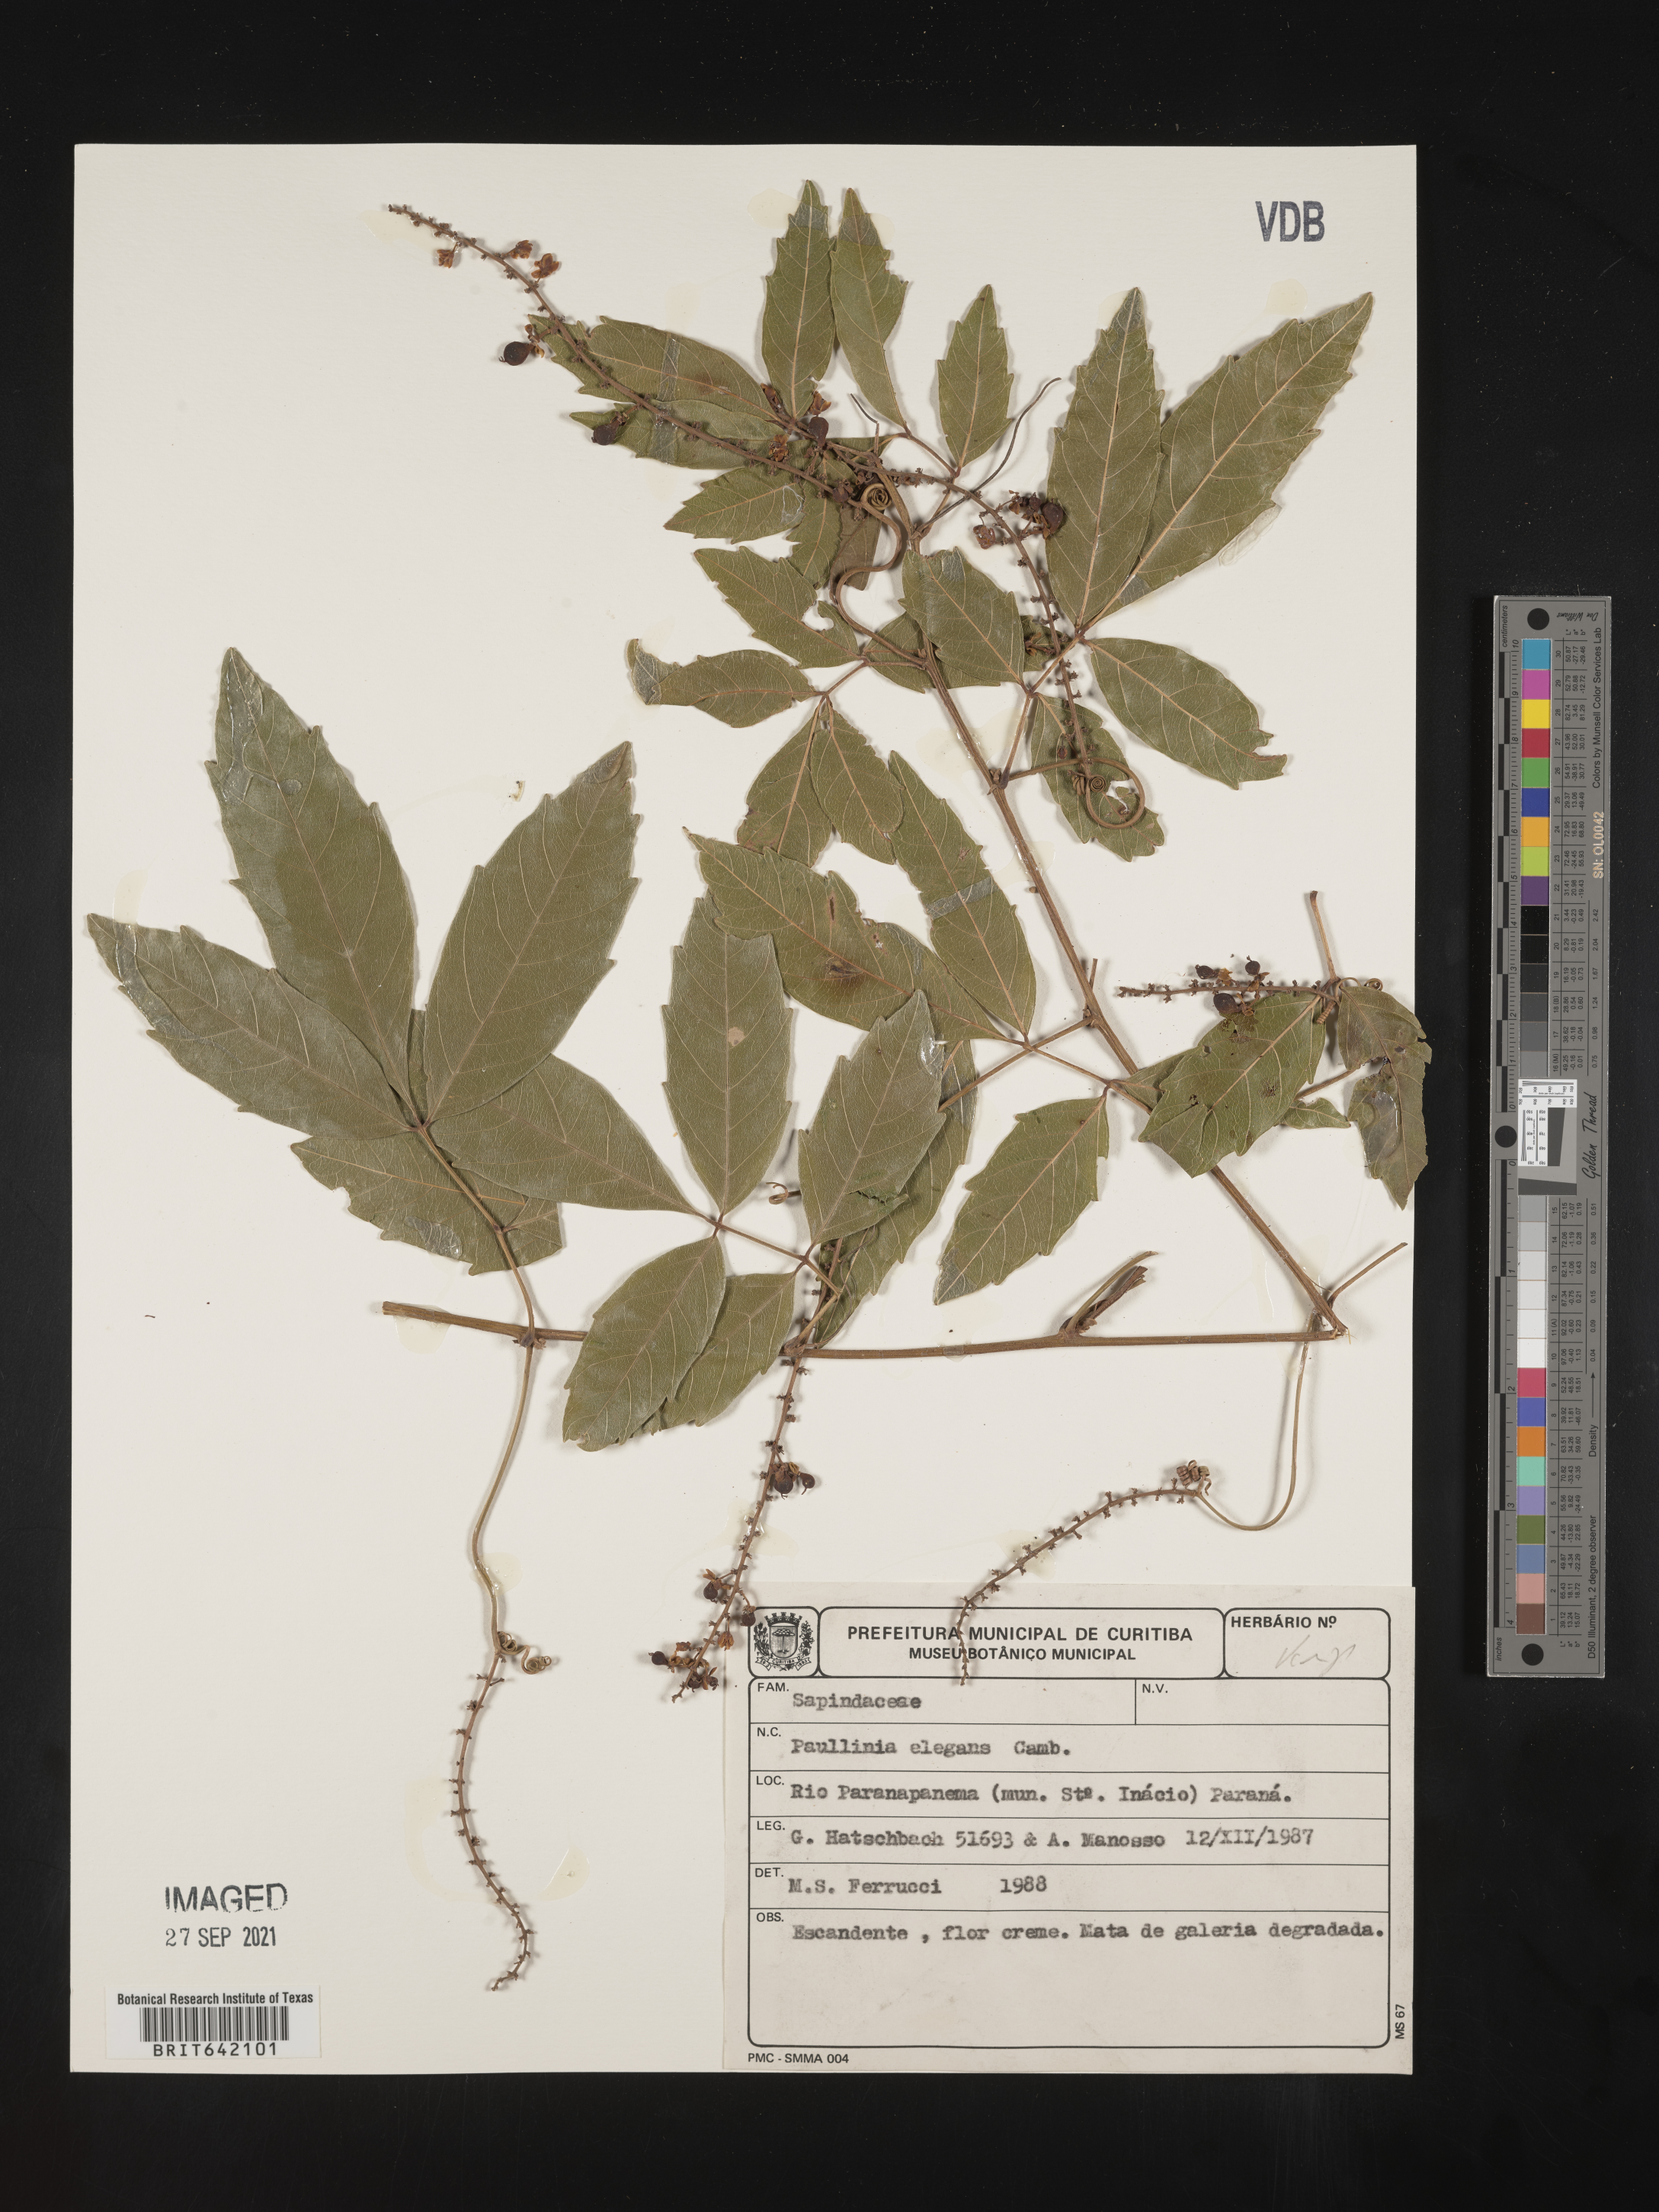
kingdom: Plantae
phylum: Tracheophyta
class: Magnoliopsida
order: Sapindales
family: Sapindaceae
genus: Paullinia
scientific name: Paullinia
